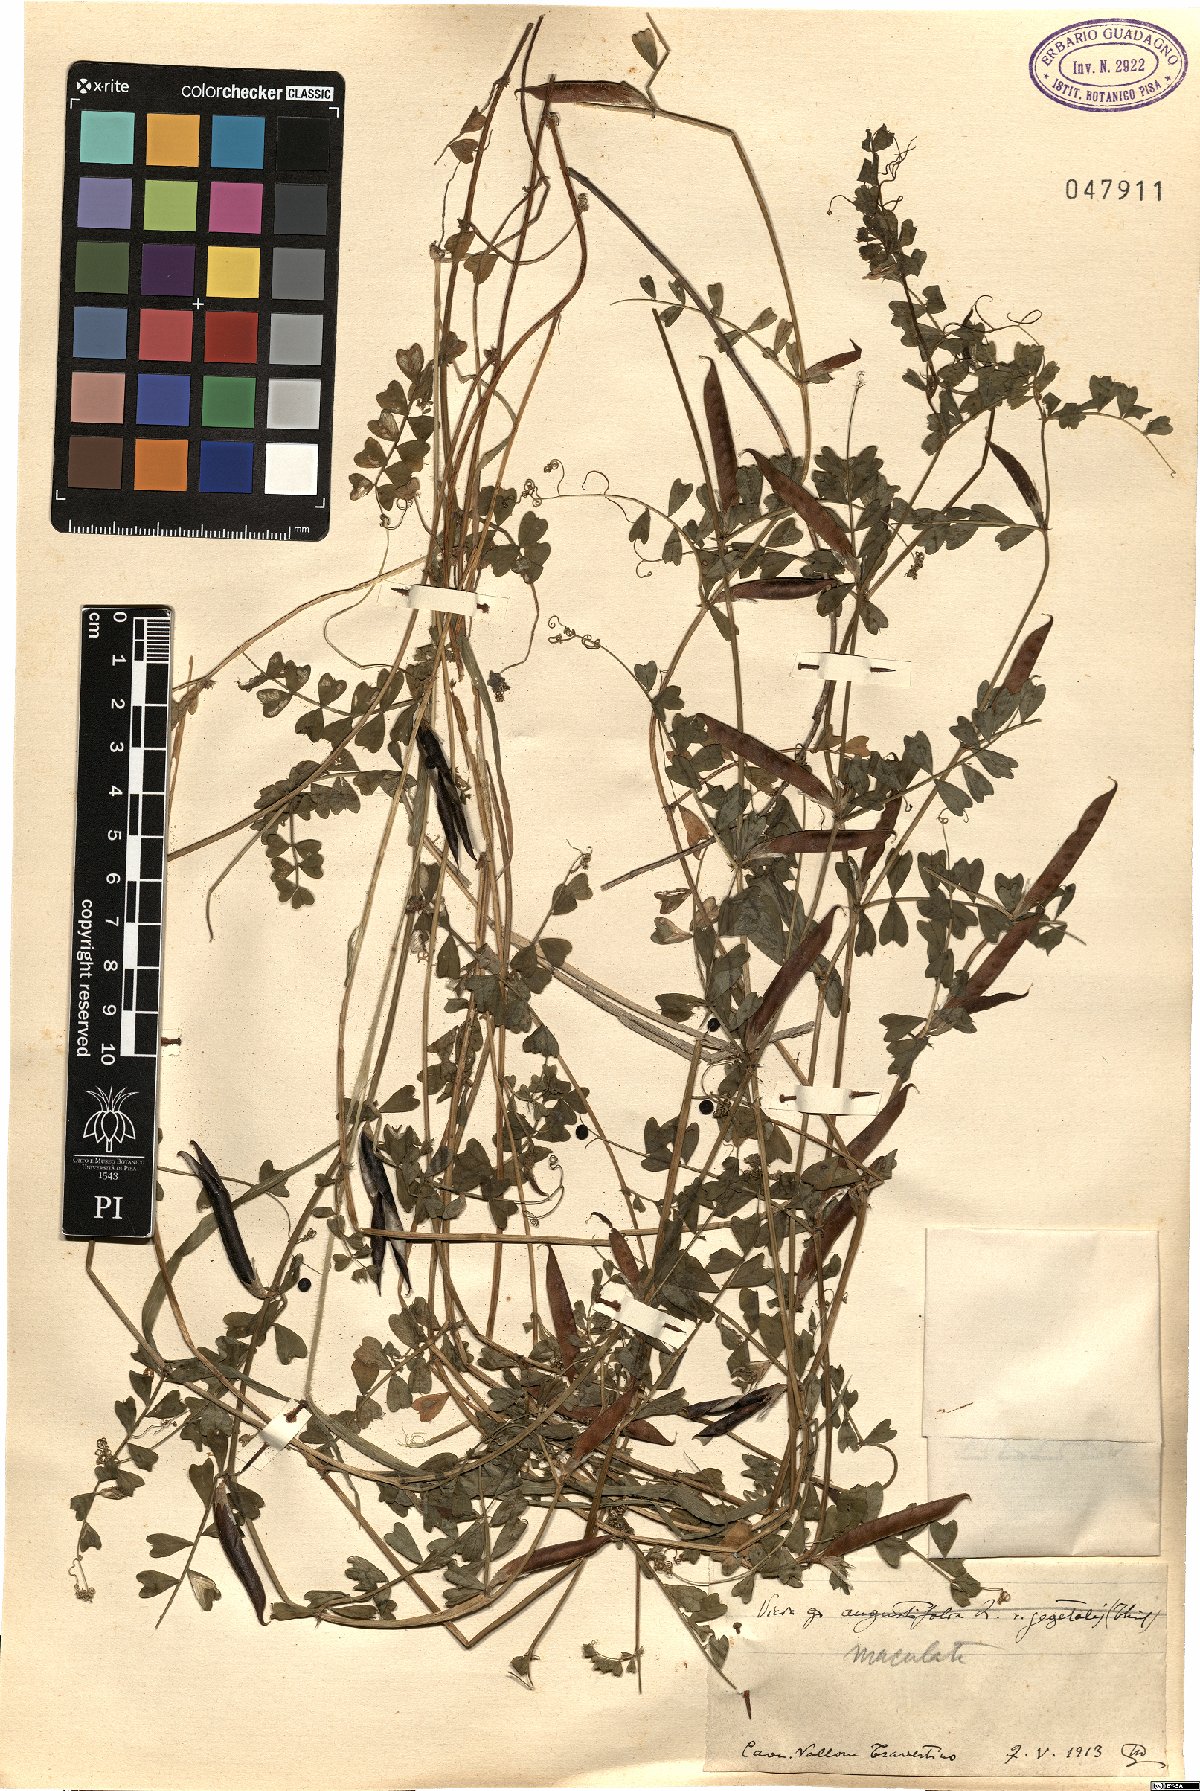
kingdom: Plantae
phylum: Tracheophyta
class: Magnoliopsida
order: Fabales
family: Fabaceae
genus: Vicia
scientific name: Vicia sativa
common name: Garden vetch
